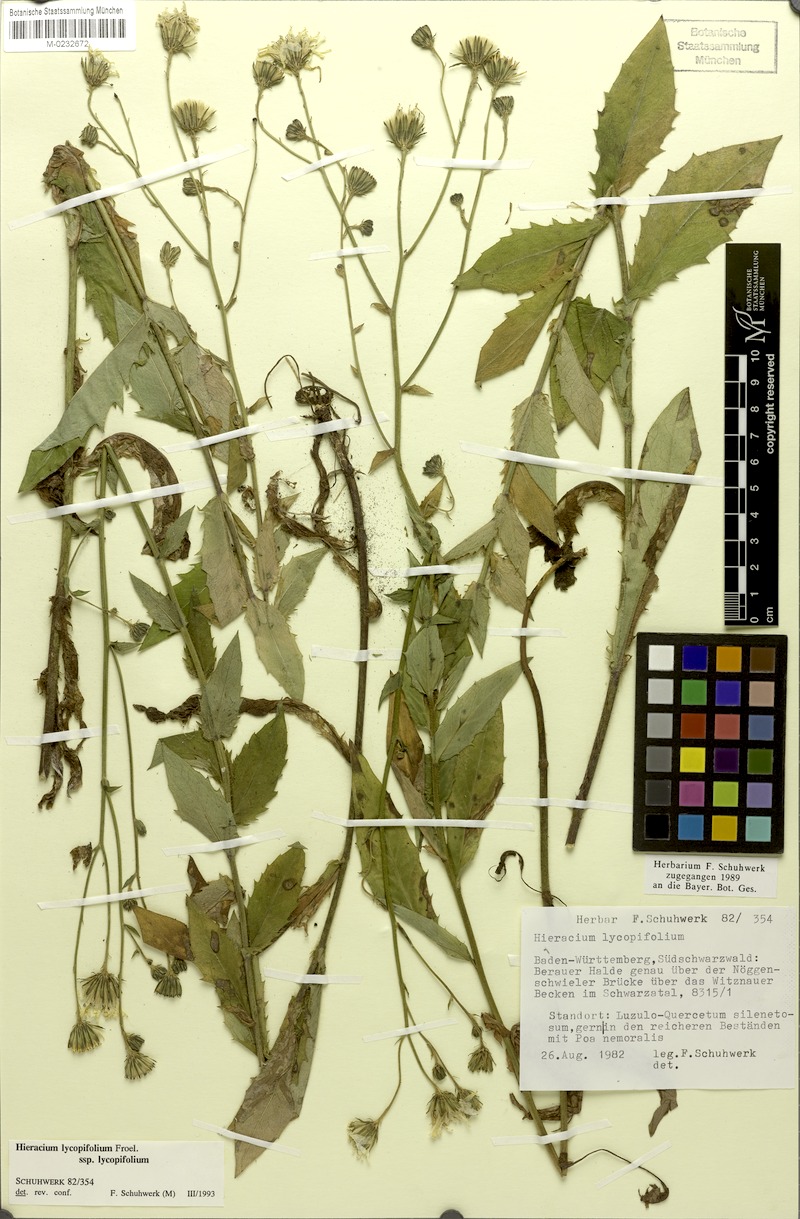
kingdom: Plantae
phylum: Tracheophyta
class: Magnoliopsida
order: Asterales
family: Asteraceae
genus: Hieracium
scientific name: Hieracium lycopifolium
